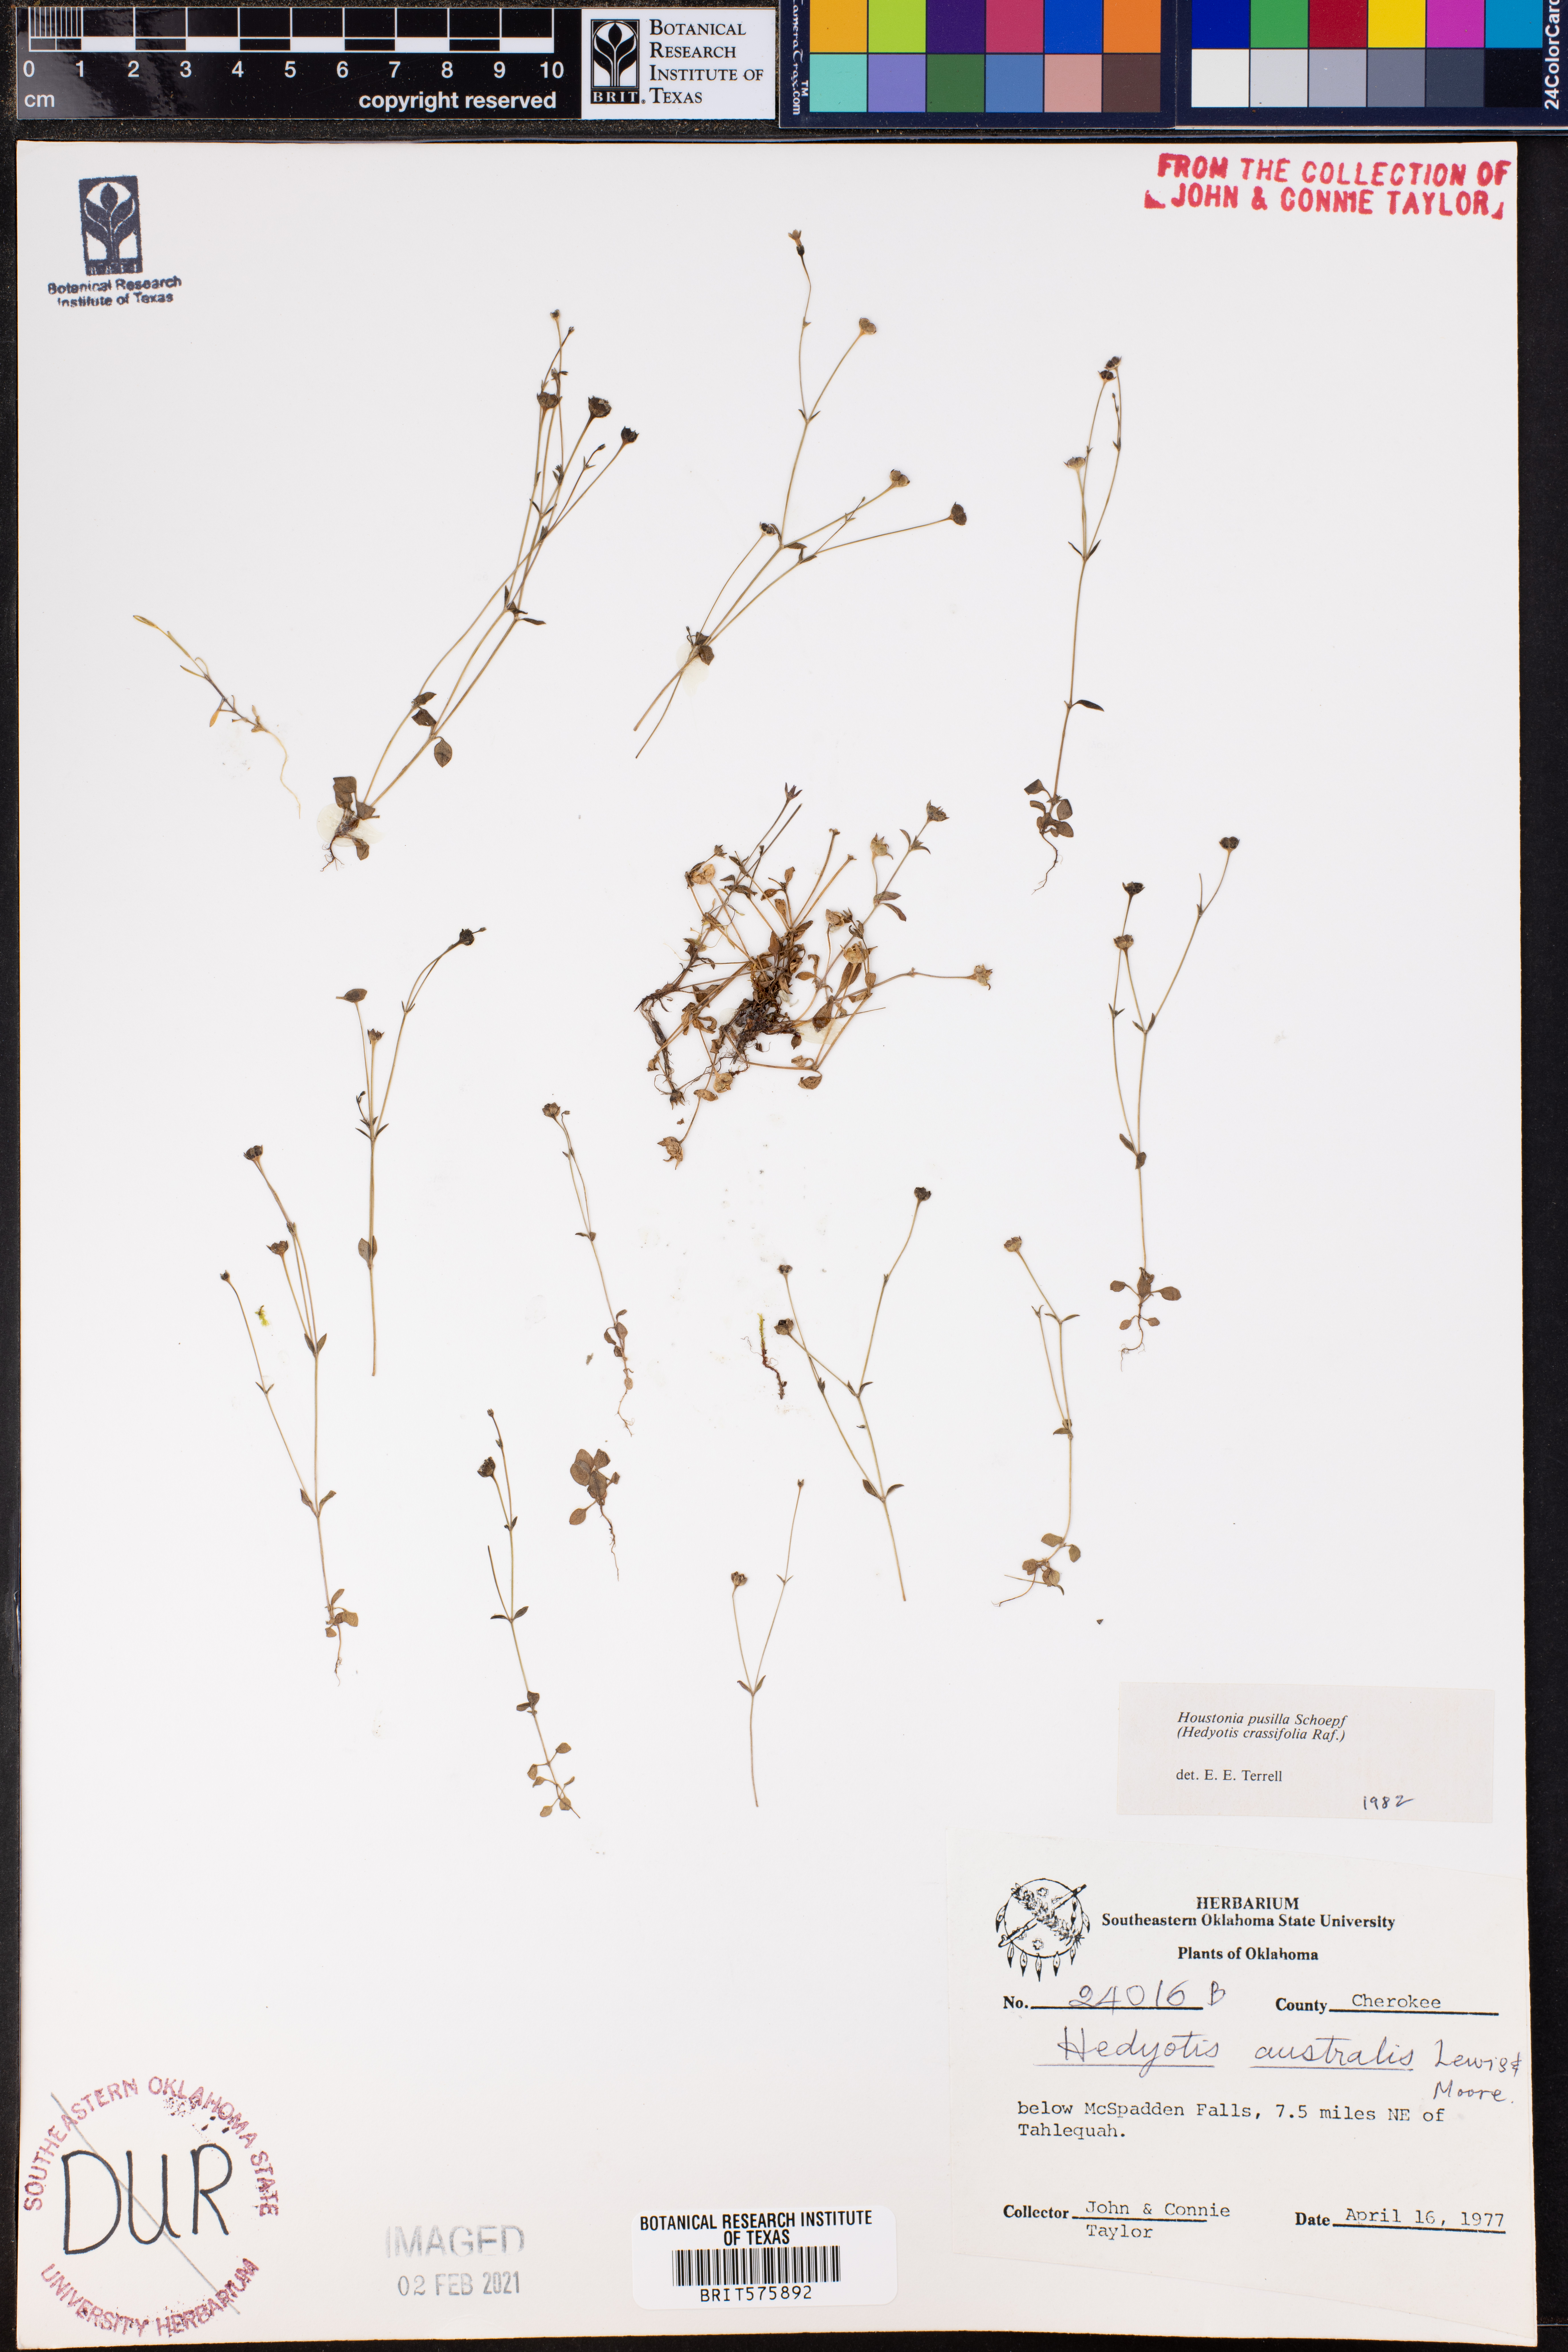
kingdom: Plantae
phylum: Tracheophyta
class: Magnoliopsida
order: Gentianales
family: Rubiaceae
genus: Houstonia
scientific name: Houstonia pusilla
